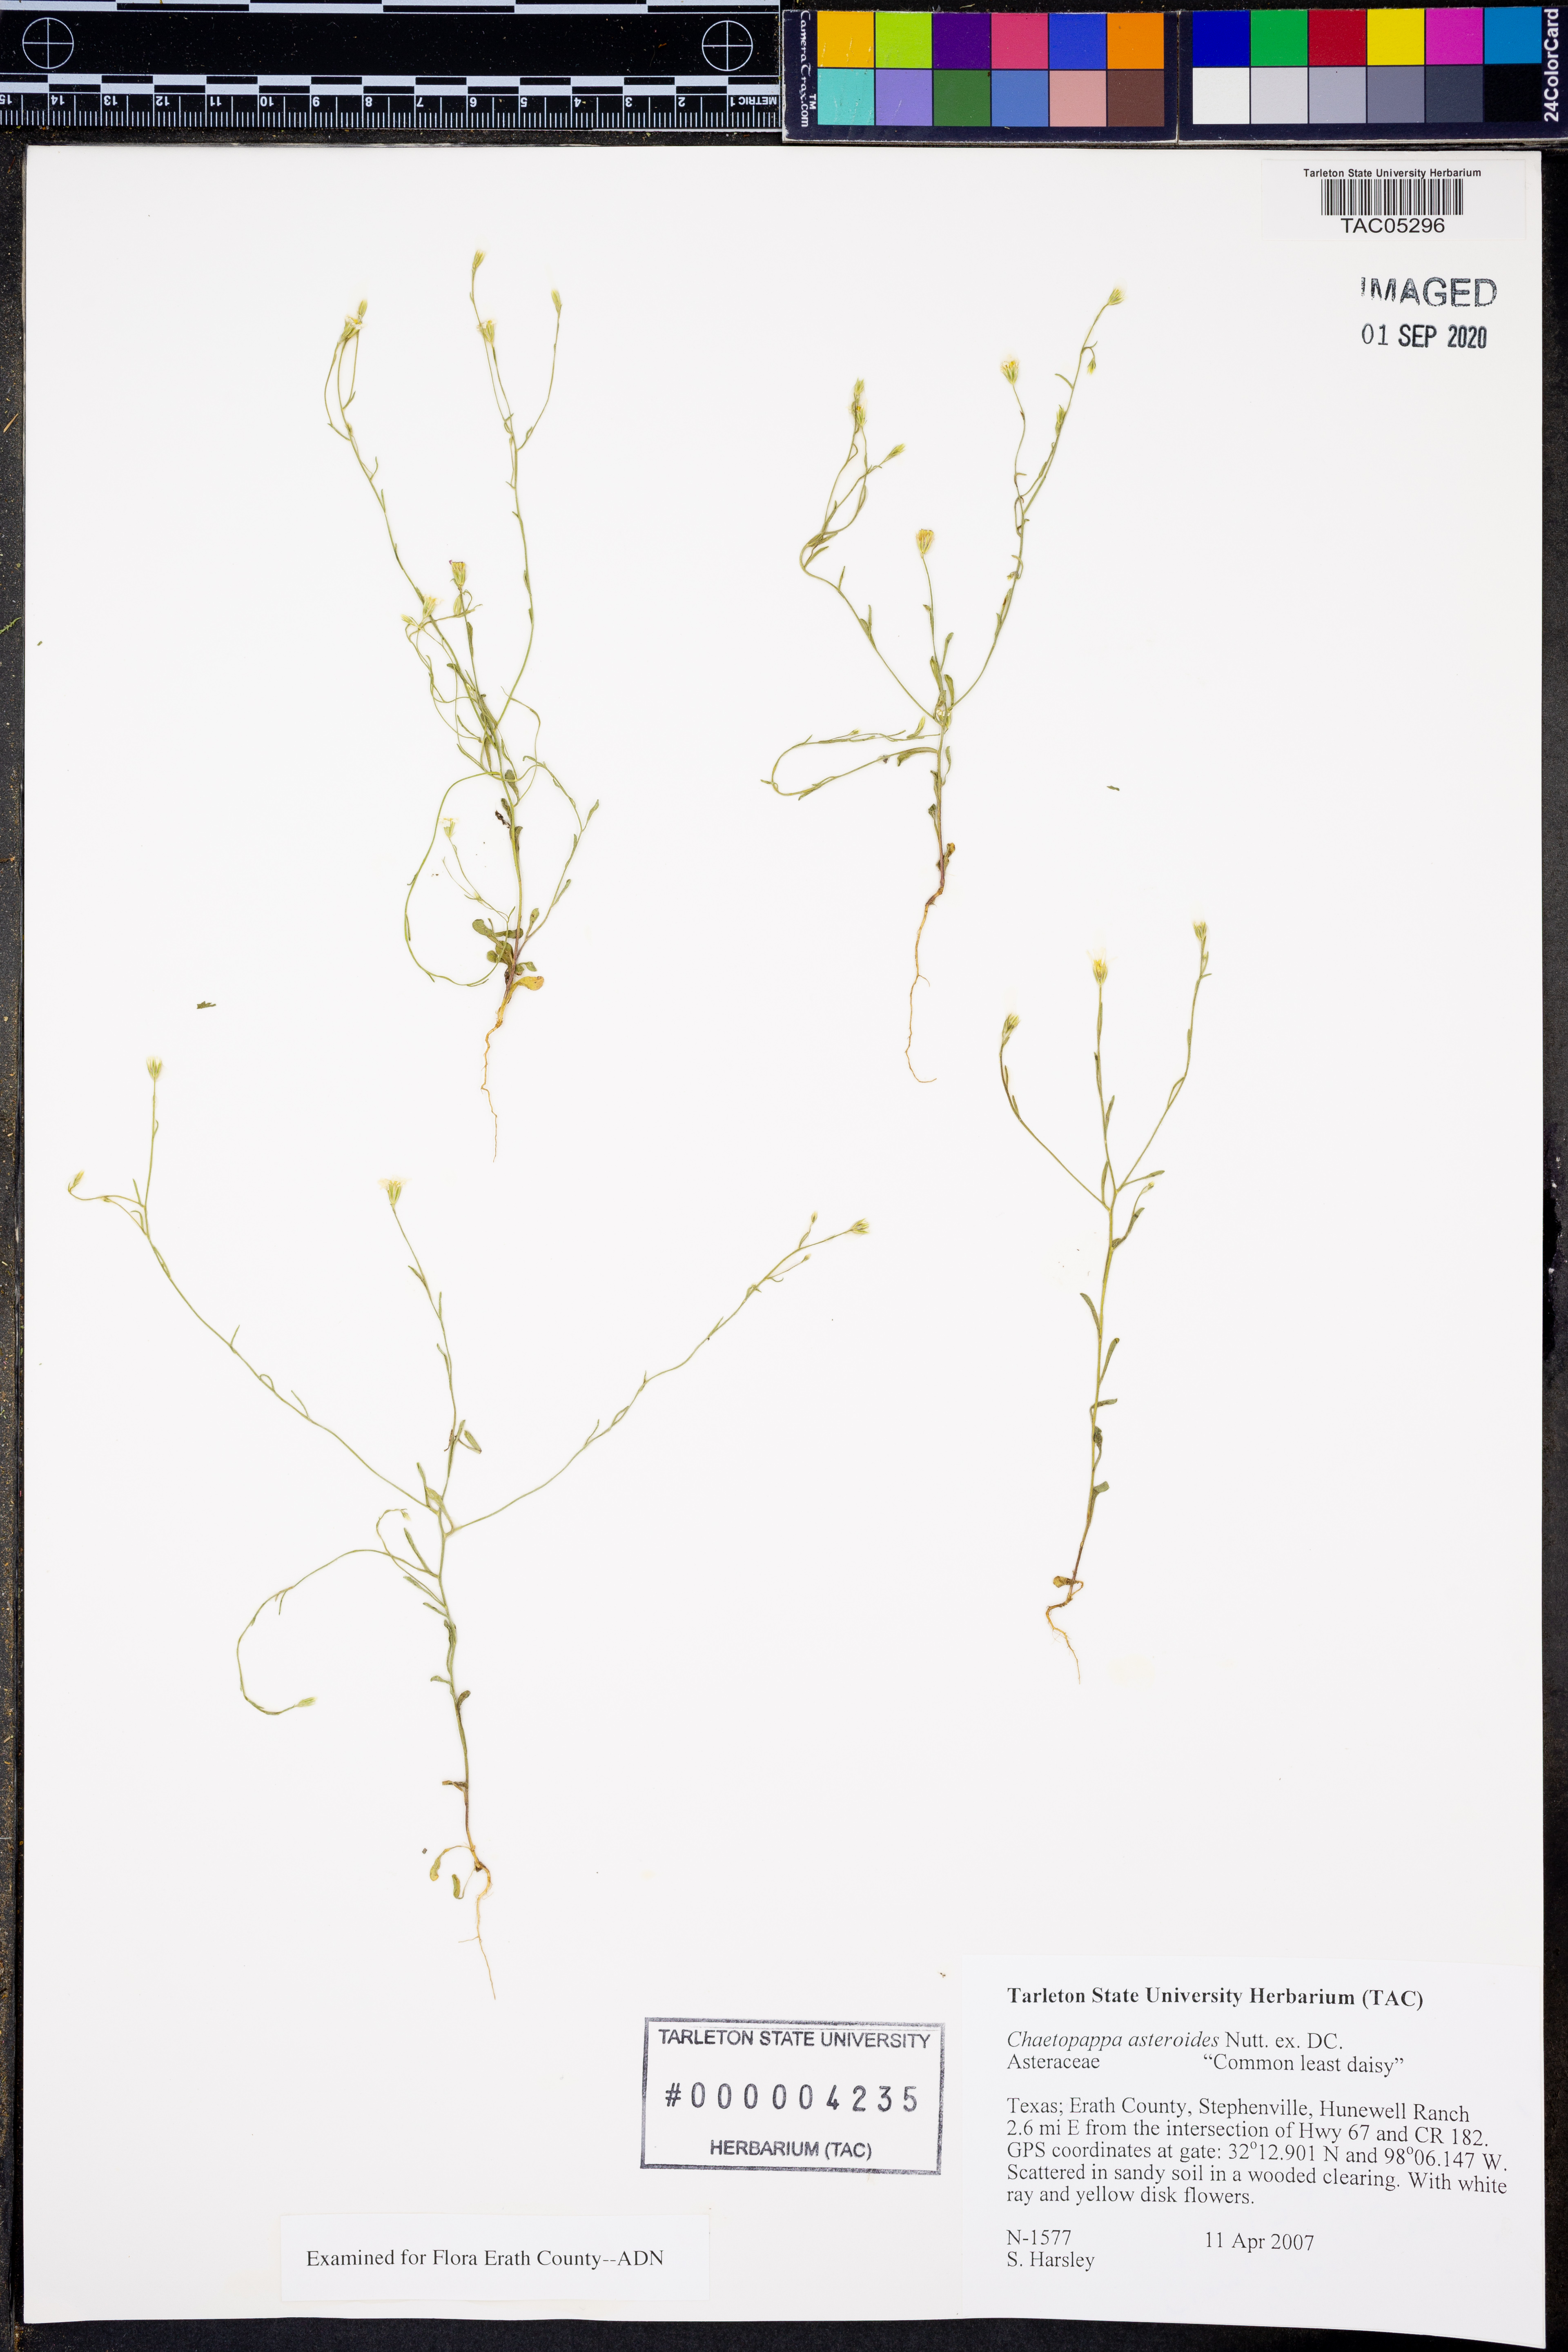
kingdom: Plantae
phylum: Tracheophyta
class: Magnoliopsida
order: Asterales
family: Asteraceae
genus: Chaetopappa
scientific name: Chaetopappa asteroides
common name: Tiny lazy daisy
